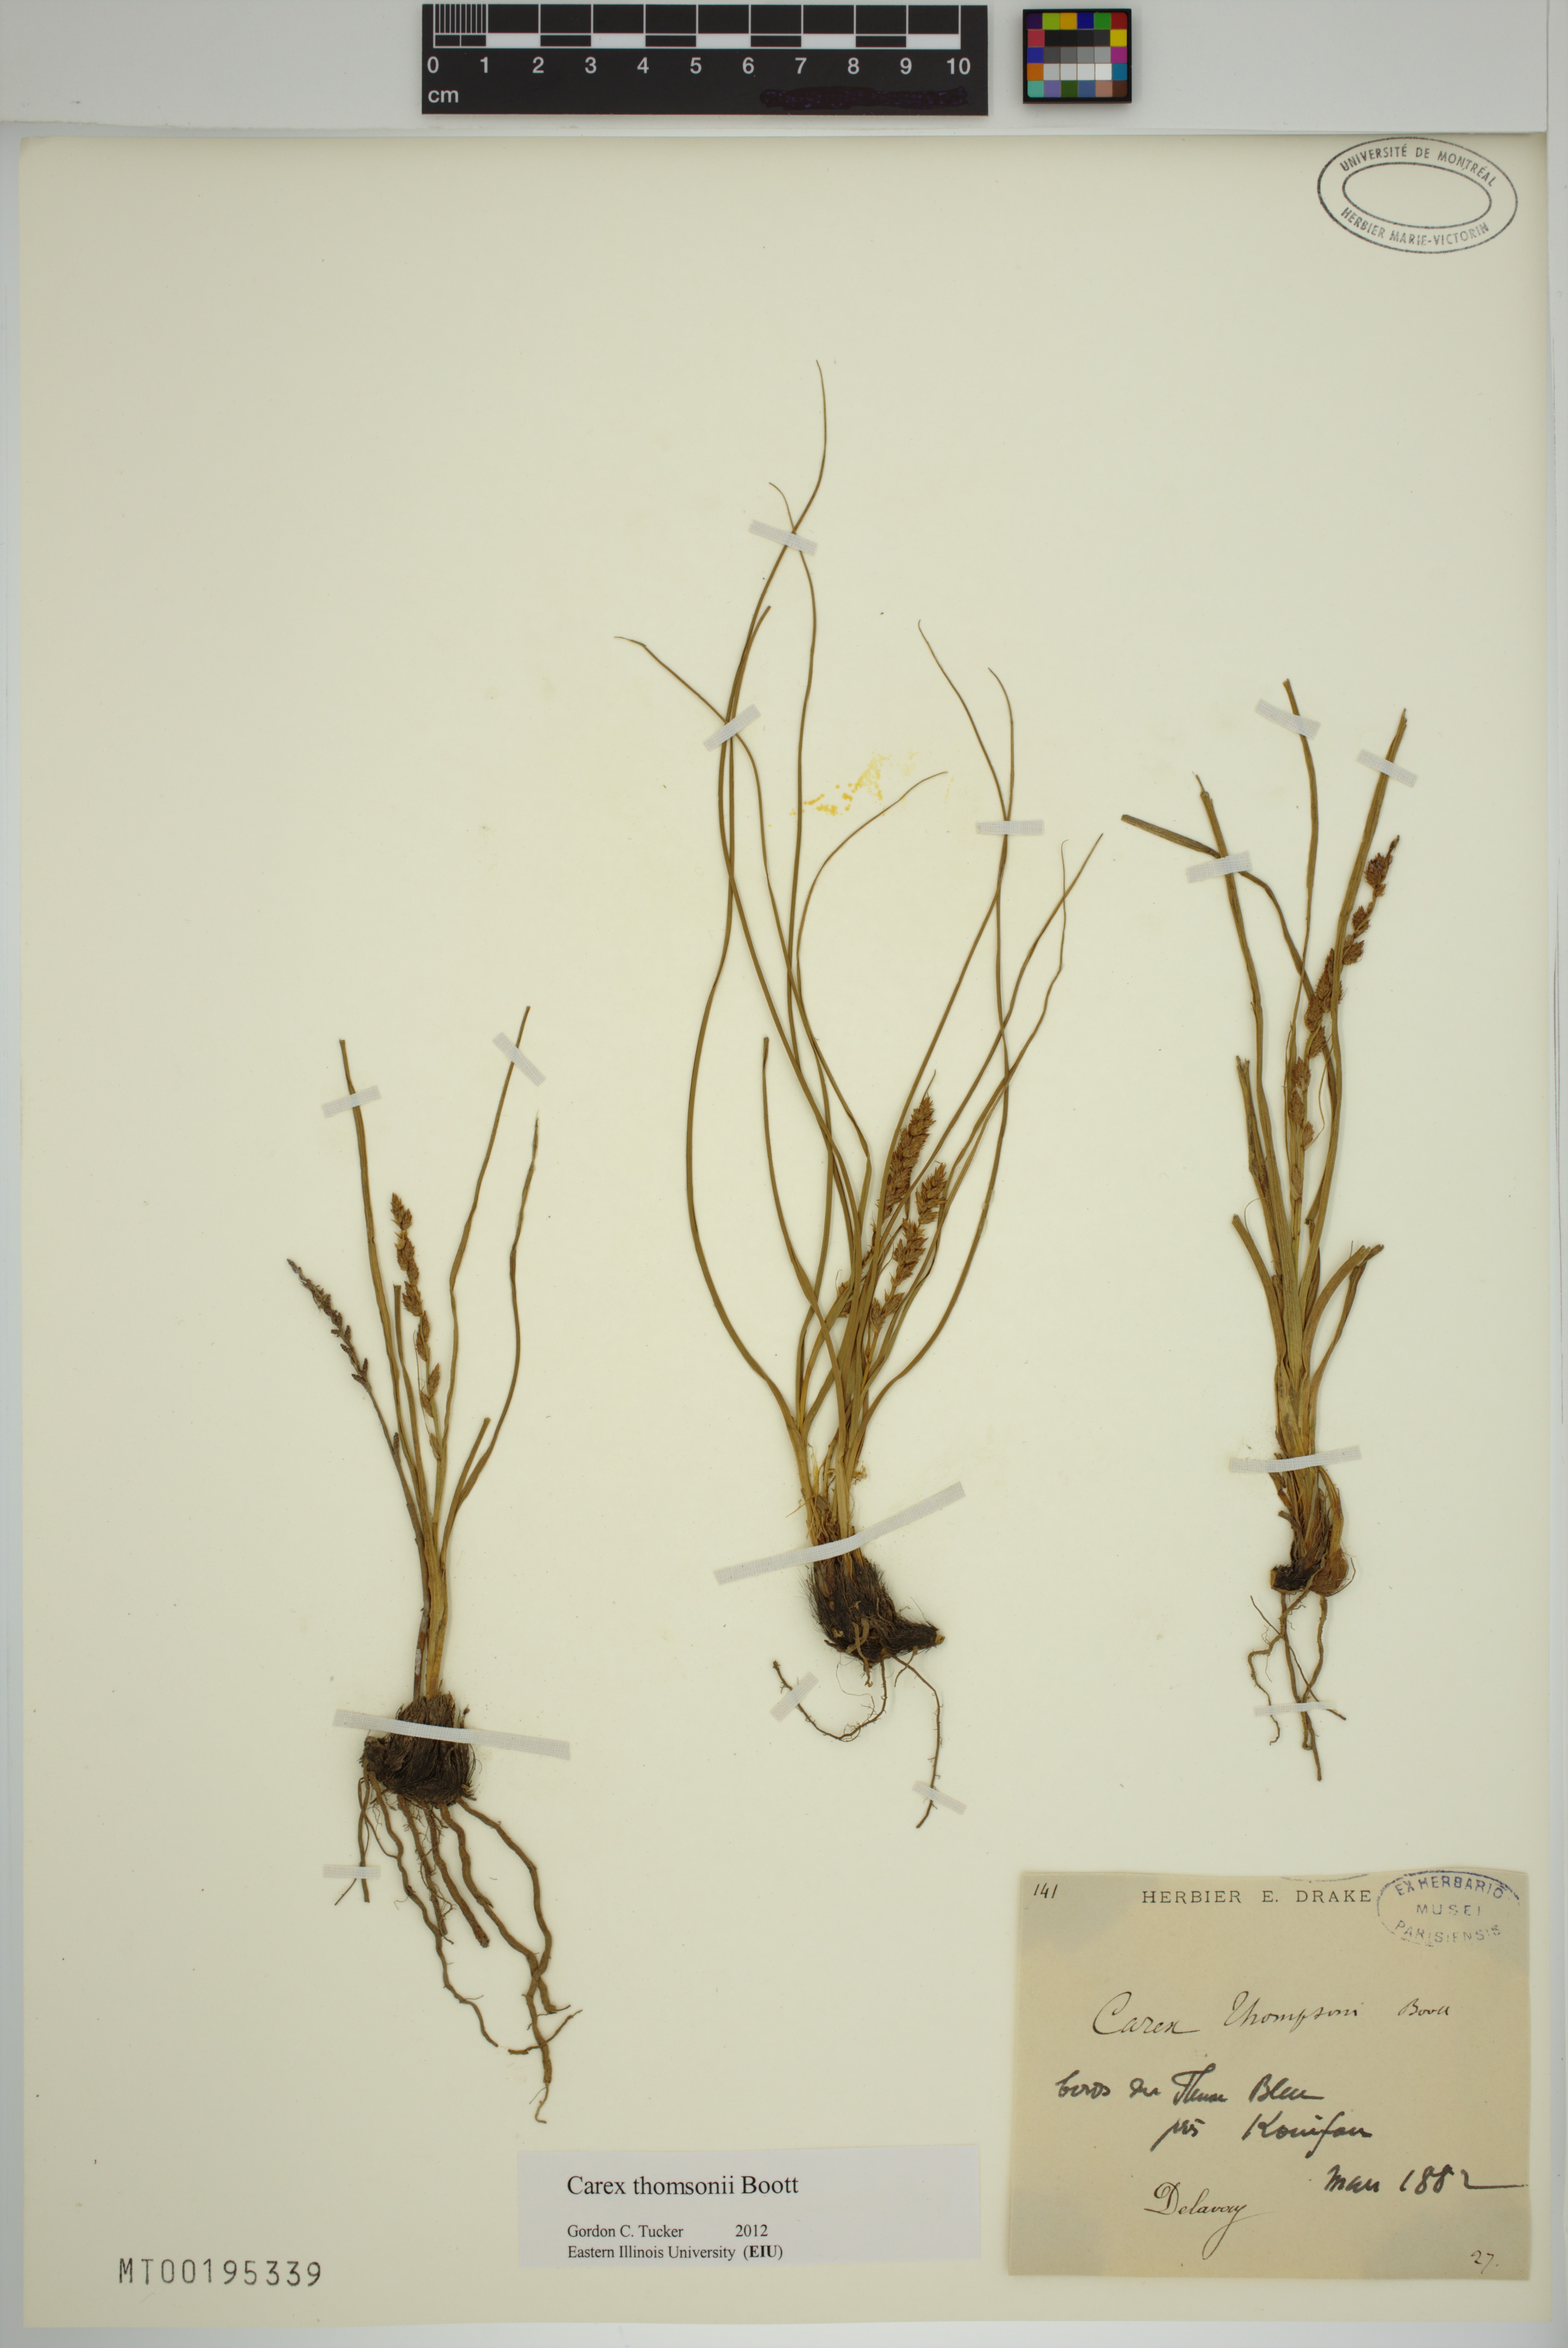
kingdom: Plantae
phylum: Tracheophyta
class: Liliopsida
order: Poales
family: Cyperaceae
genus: Carex
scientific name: Carex thomsonii
